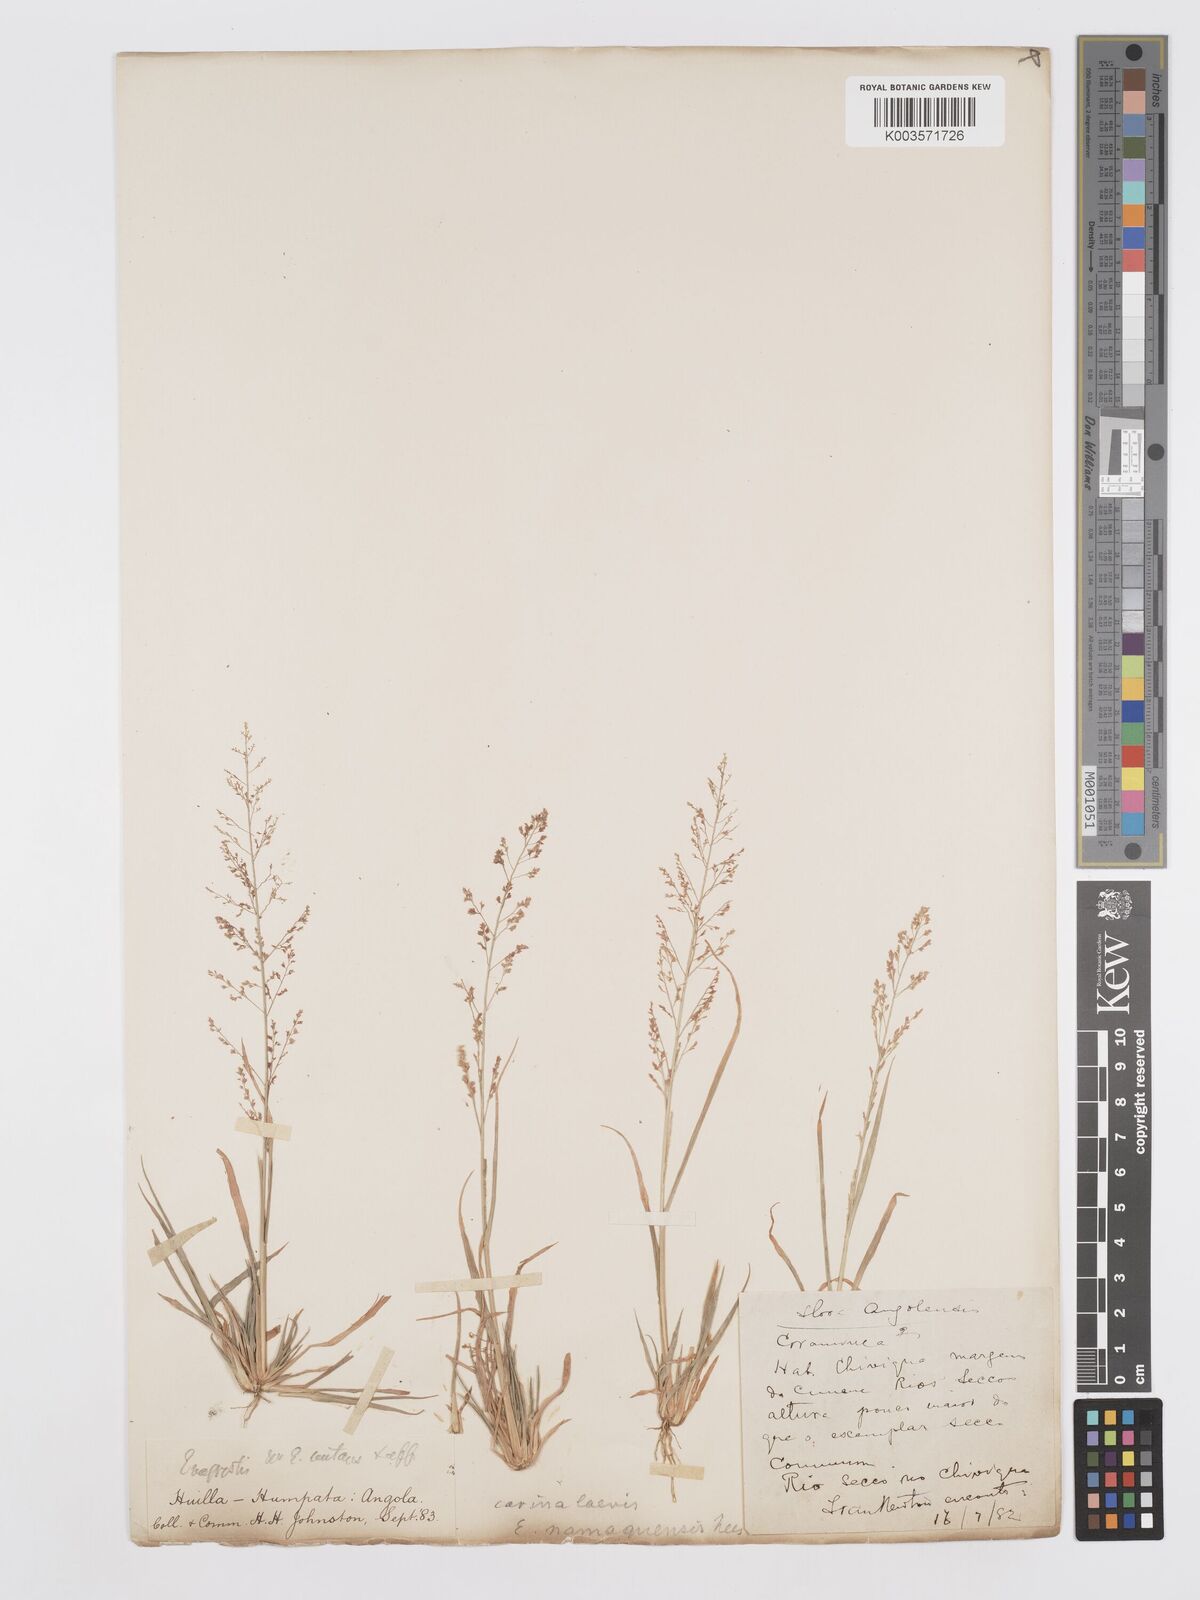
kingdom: Plantae
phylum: Tracheophyta
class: Liliopsida
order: Poales
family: Poaceae
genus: Eragrostis
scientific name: Eragrostis japonica
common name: Pond lovegrass
